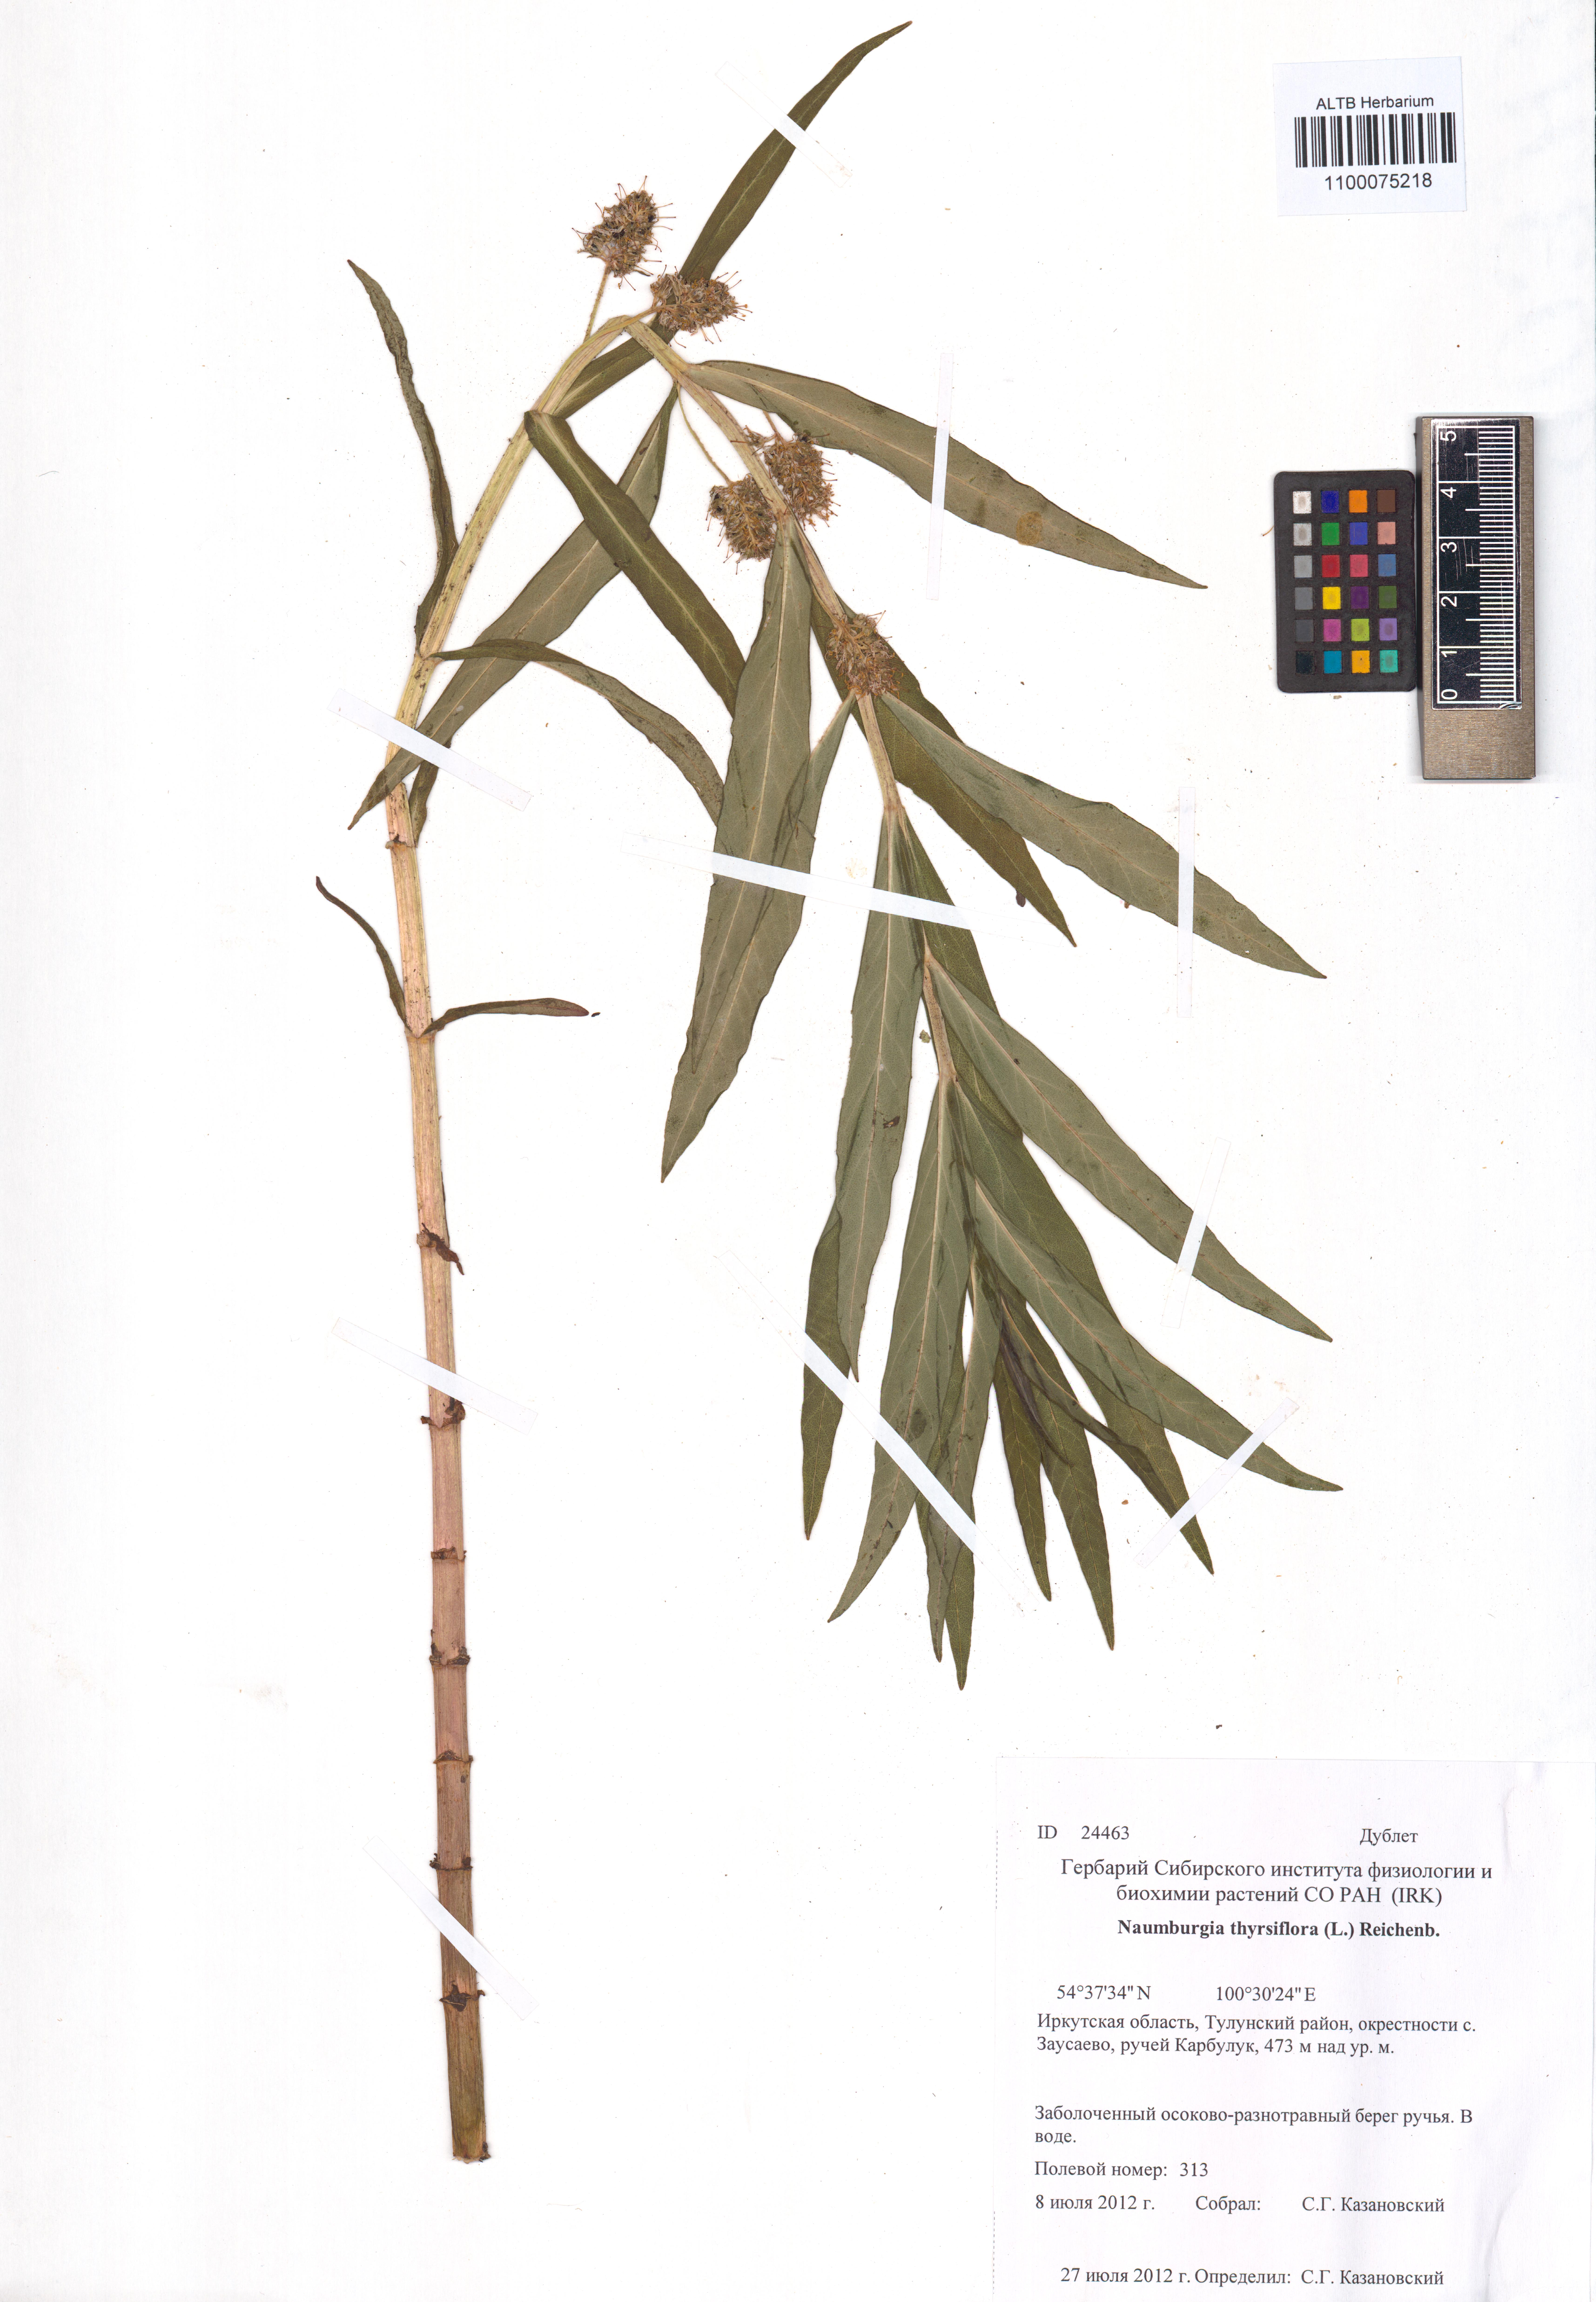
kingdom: Plantae
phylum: Tracheophyta
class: Magnoliopsida
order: Ericales
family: Primulaceae
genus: Lysimachia
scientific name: Lysimachia thyrsiflora
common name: Tufted loosestrife
